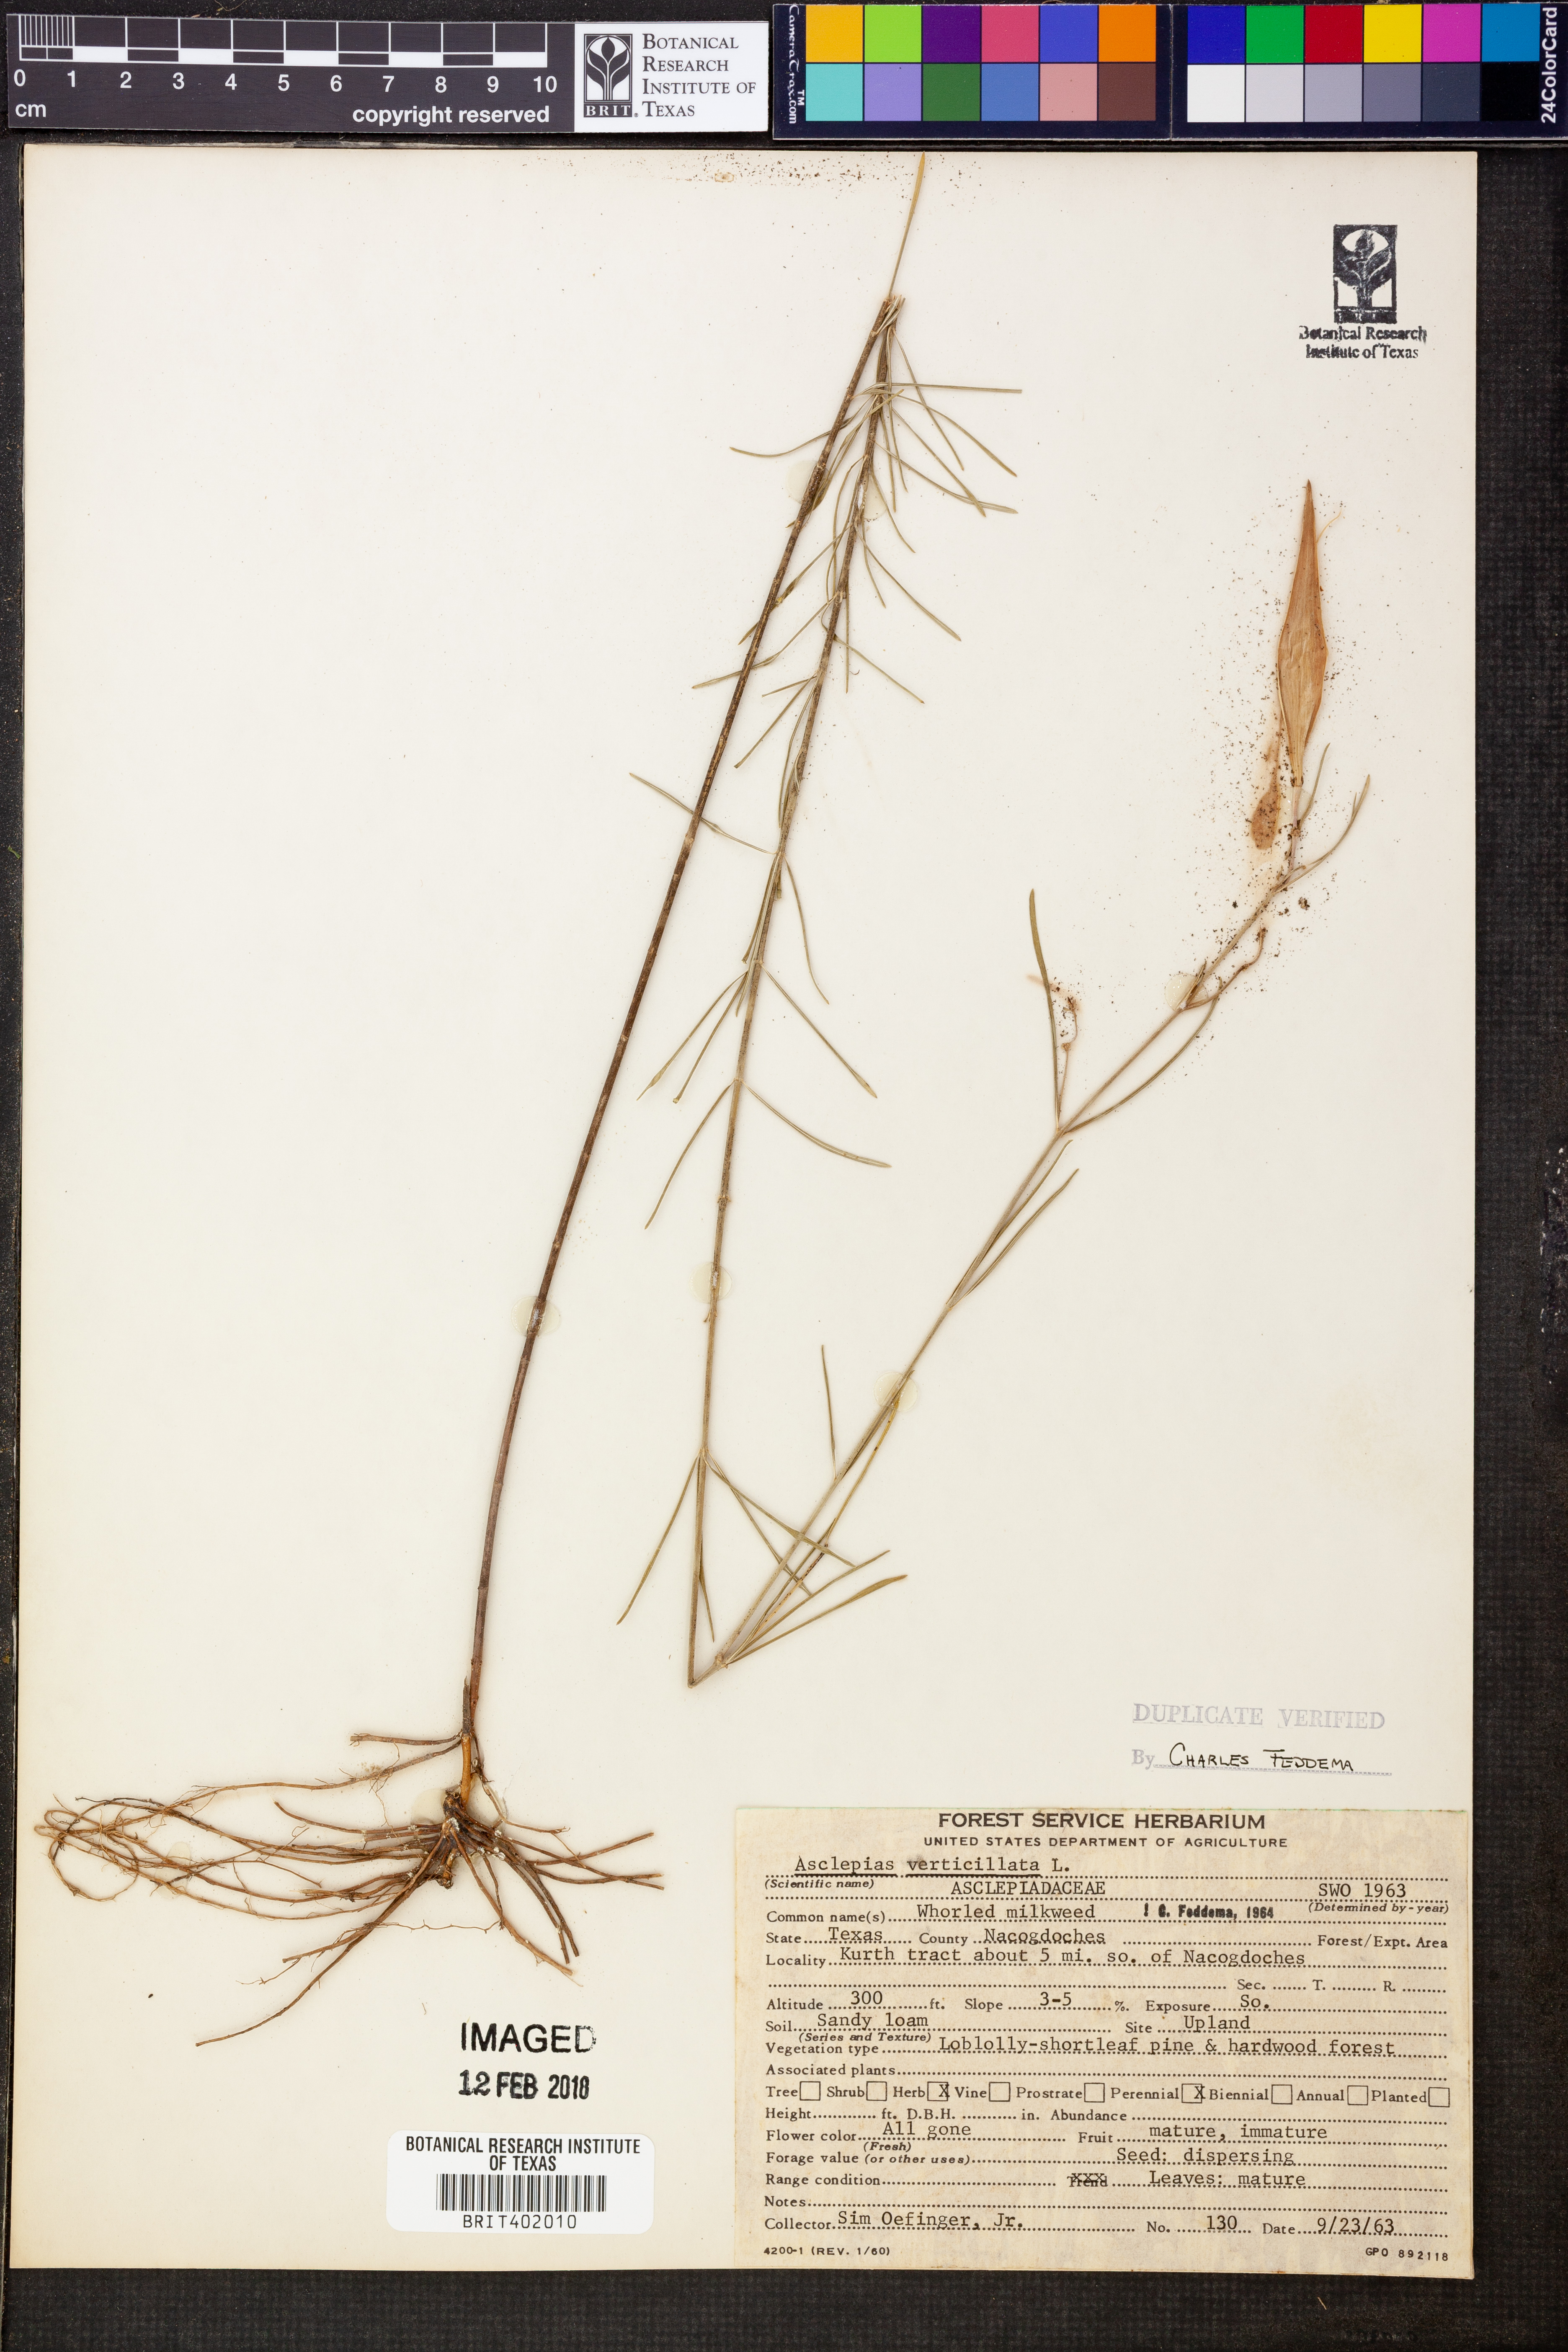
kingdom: Plantae
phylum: Tracheophyta
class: Magnoliopsida
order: Gentianales
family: Apocynaceae
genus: Asclepias
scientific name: Asclepias verticillata
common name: Eastern whorled milkweed
